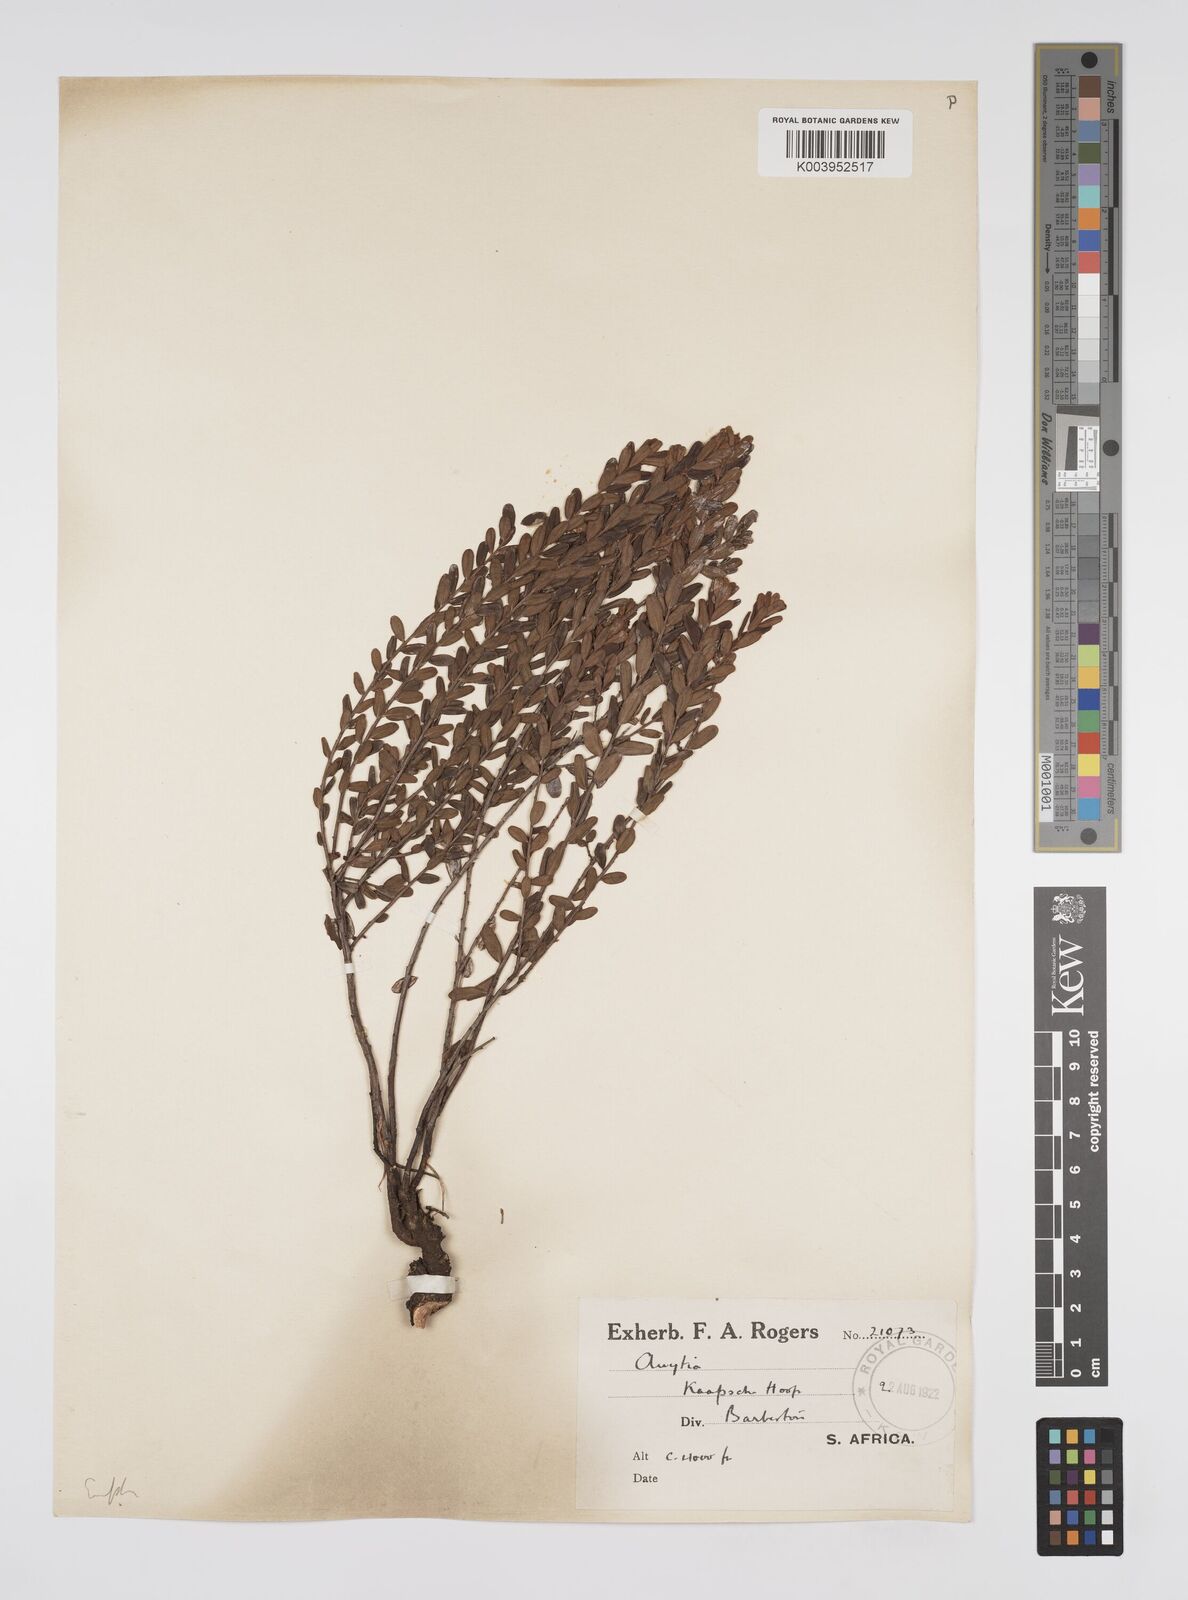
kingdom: Plantae
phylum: Tracheophyta
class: Magnoliopsida
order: Malpighiales
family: Peraceae
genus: Clutia
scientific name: Clutia
